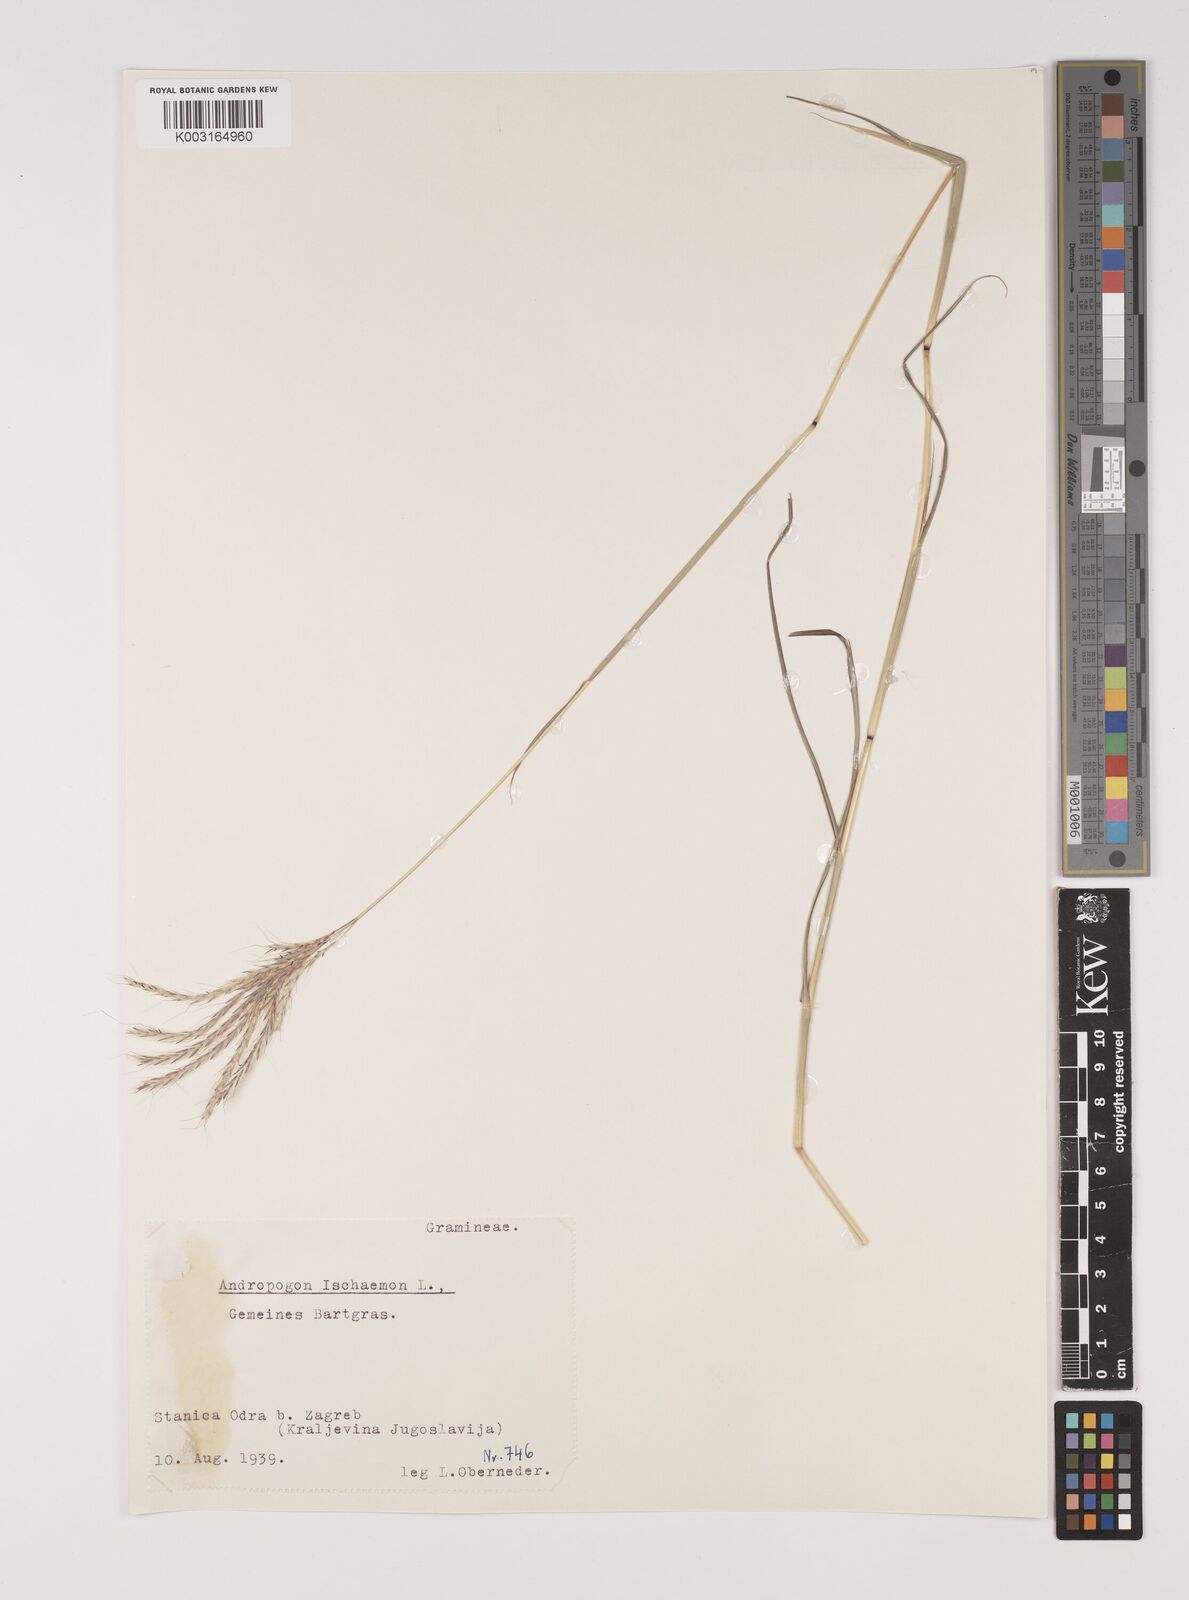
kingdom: Plantae
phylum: Tracheophyta
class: Liliopsida
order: Poales
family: Poaceae
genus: Bothriochloa
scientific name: Bothriochloa ischaemum
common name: Yellow bluestem
